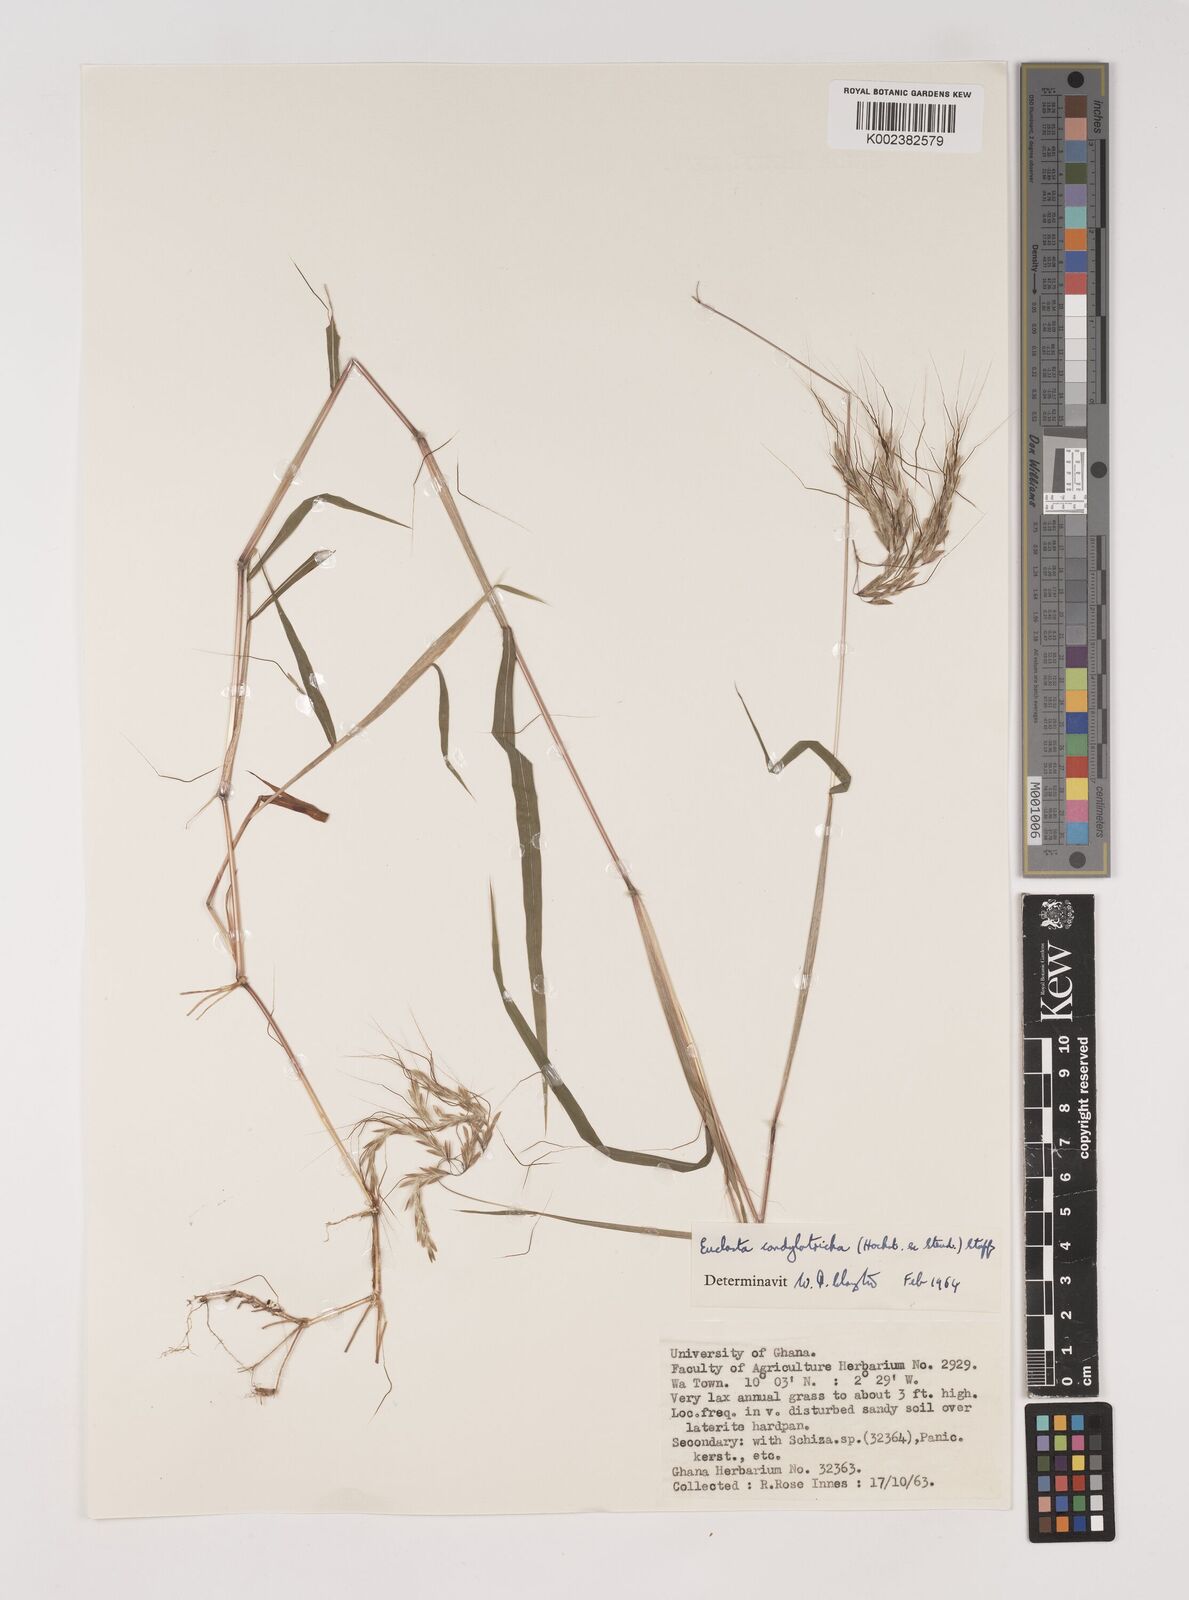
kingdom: Plantae
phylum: Tracheophyta
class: Liliopsida
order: Poales
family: Poaceae
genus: Euclasta
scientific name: Euclasta condylotricha
